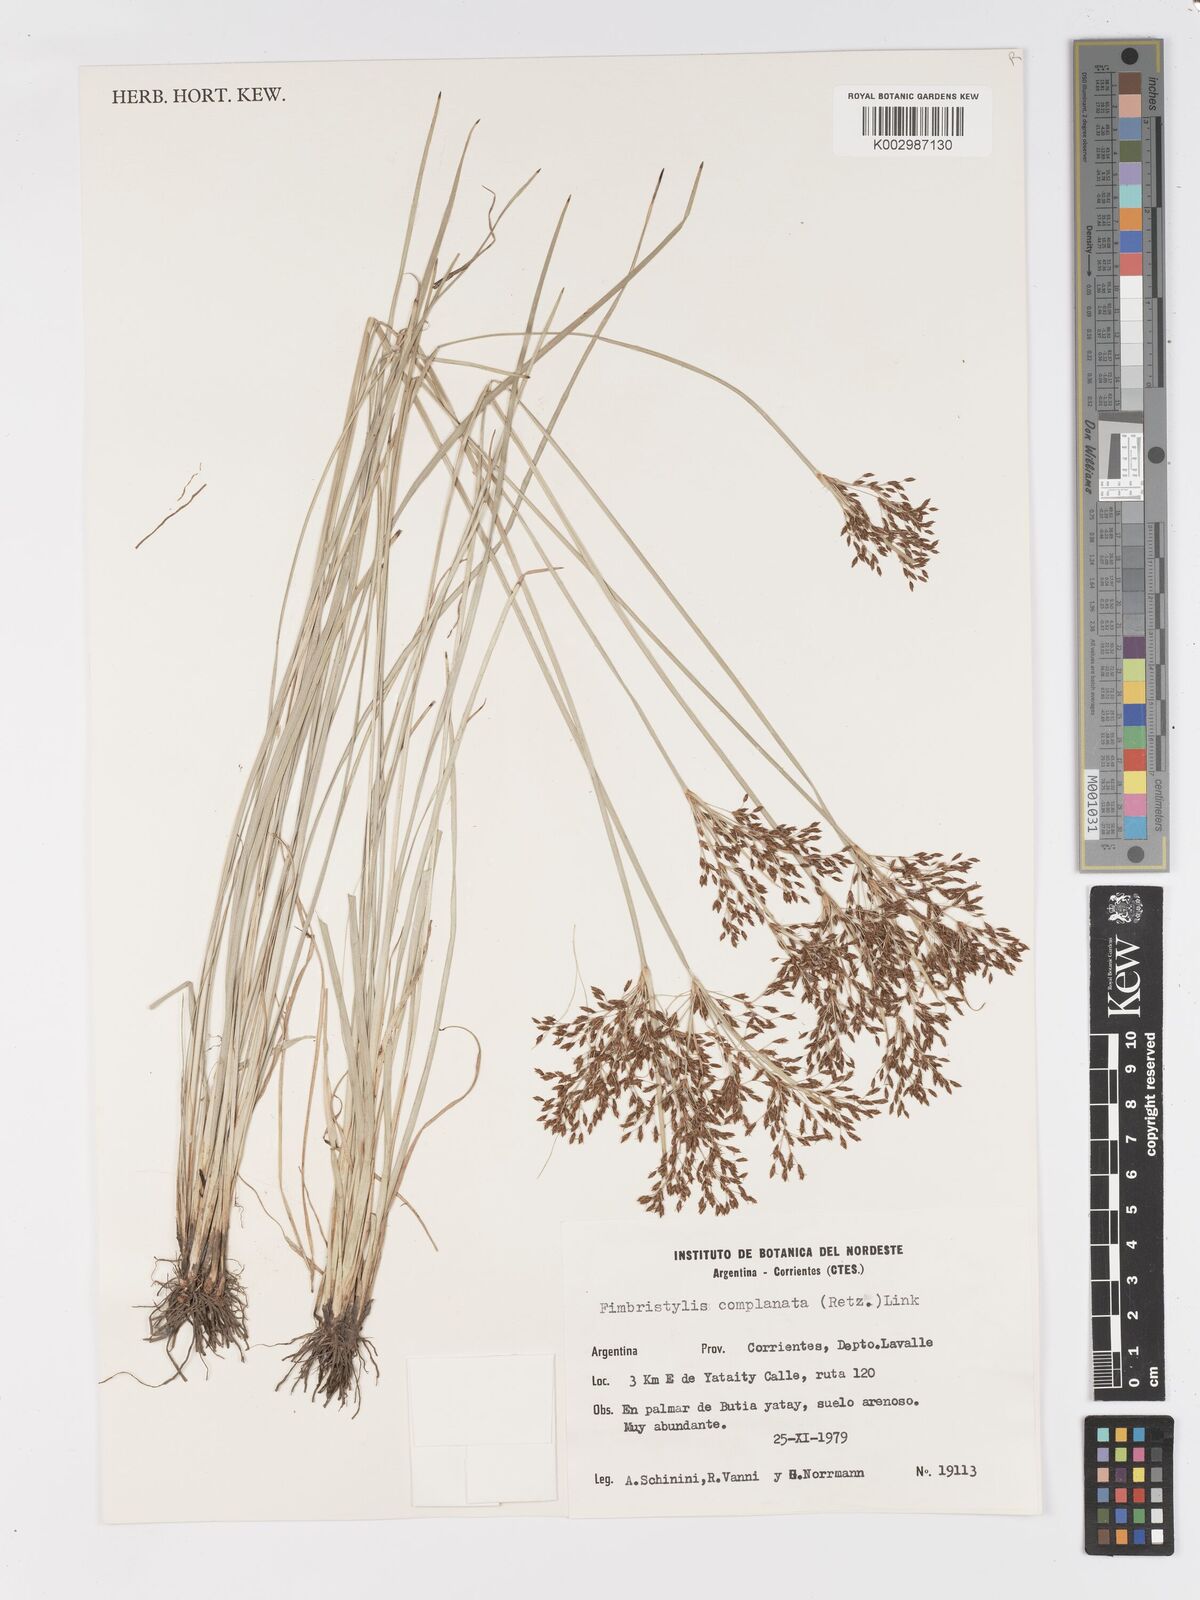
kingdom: Plantae
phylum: Tracheophyta
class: Liliopsida
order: Poales
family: Cyperaceae
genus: Fimbristylis
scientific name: Fimbristylis complanata
